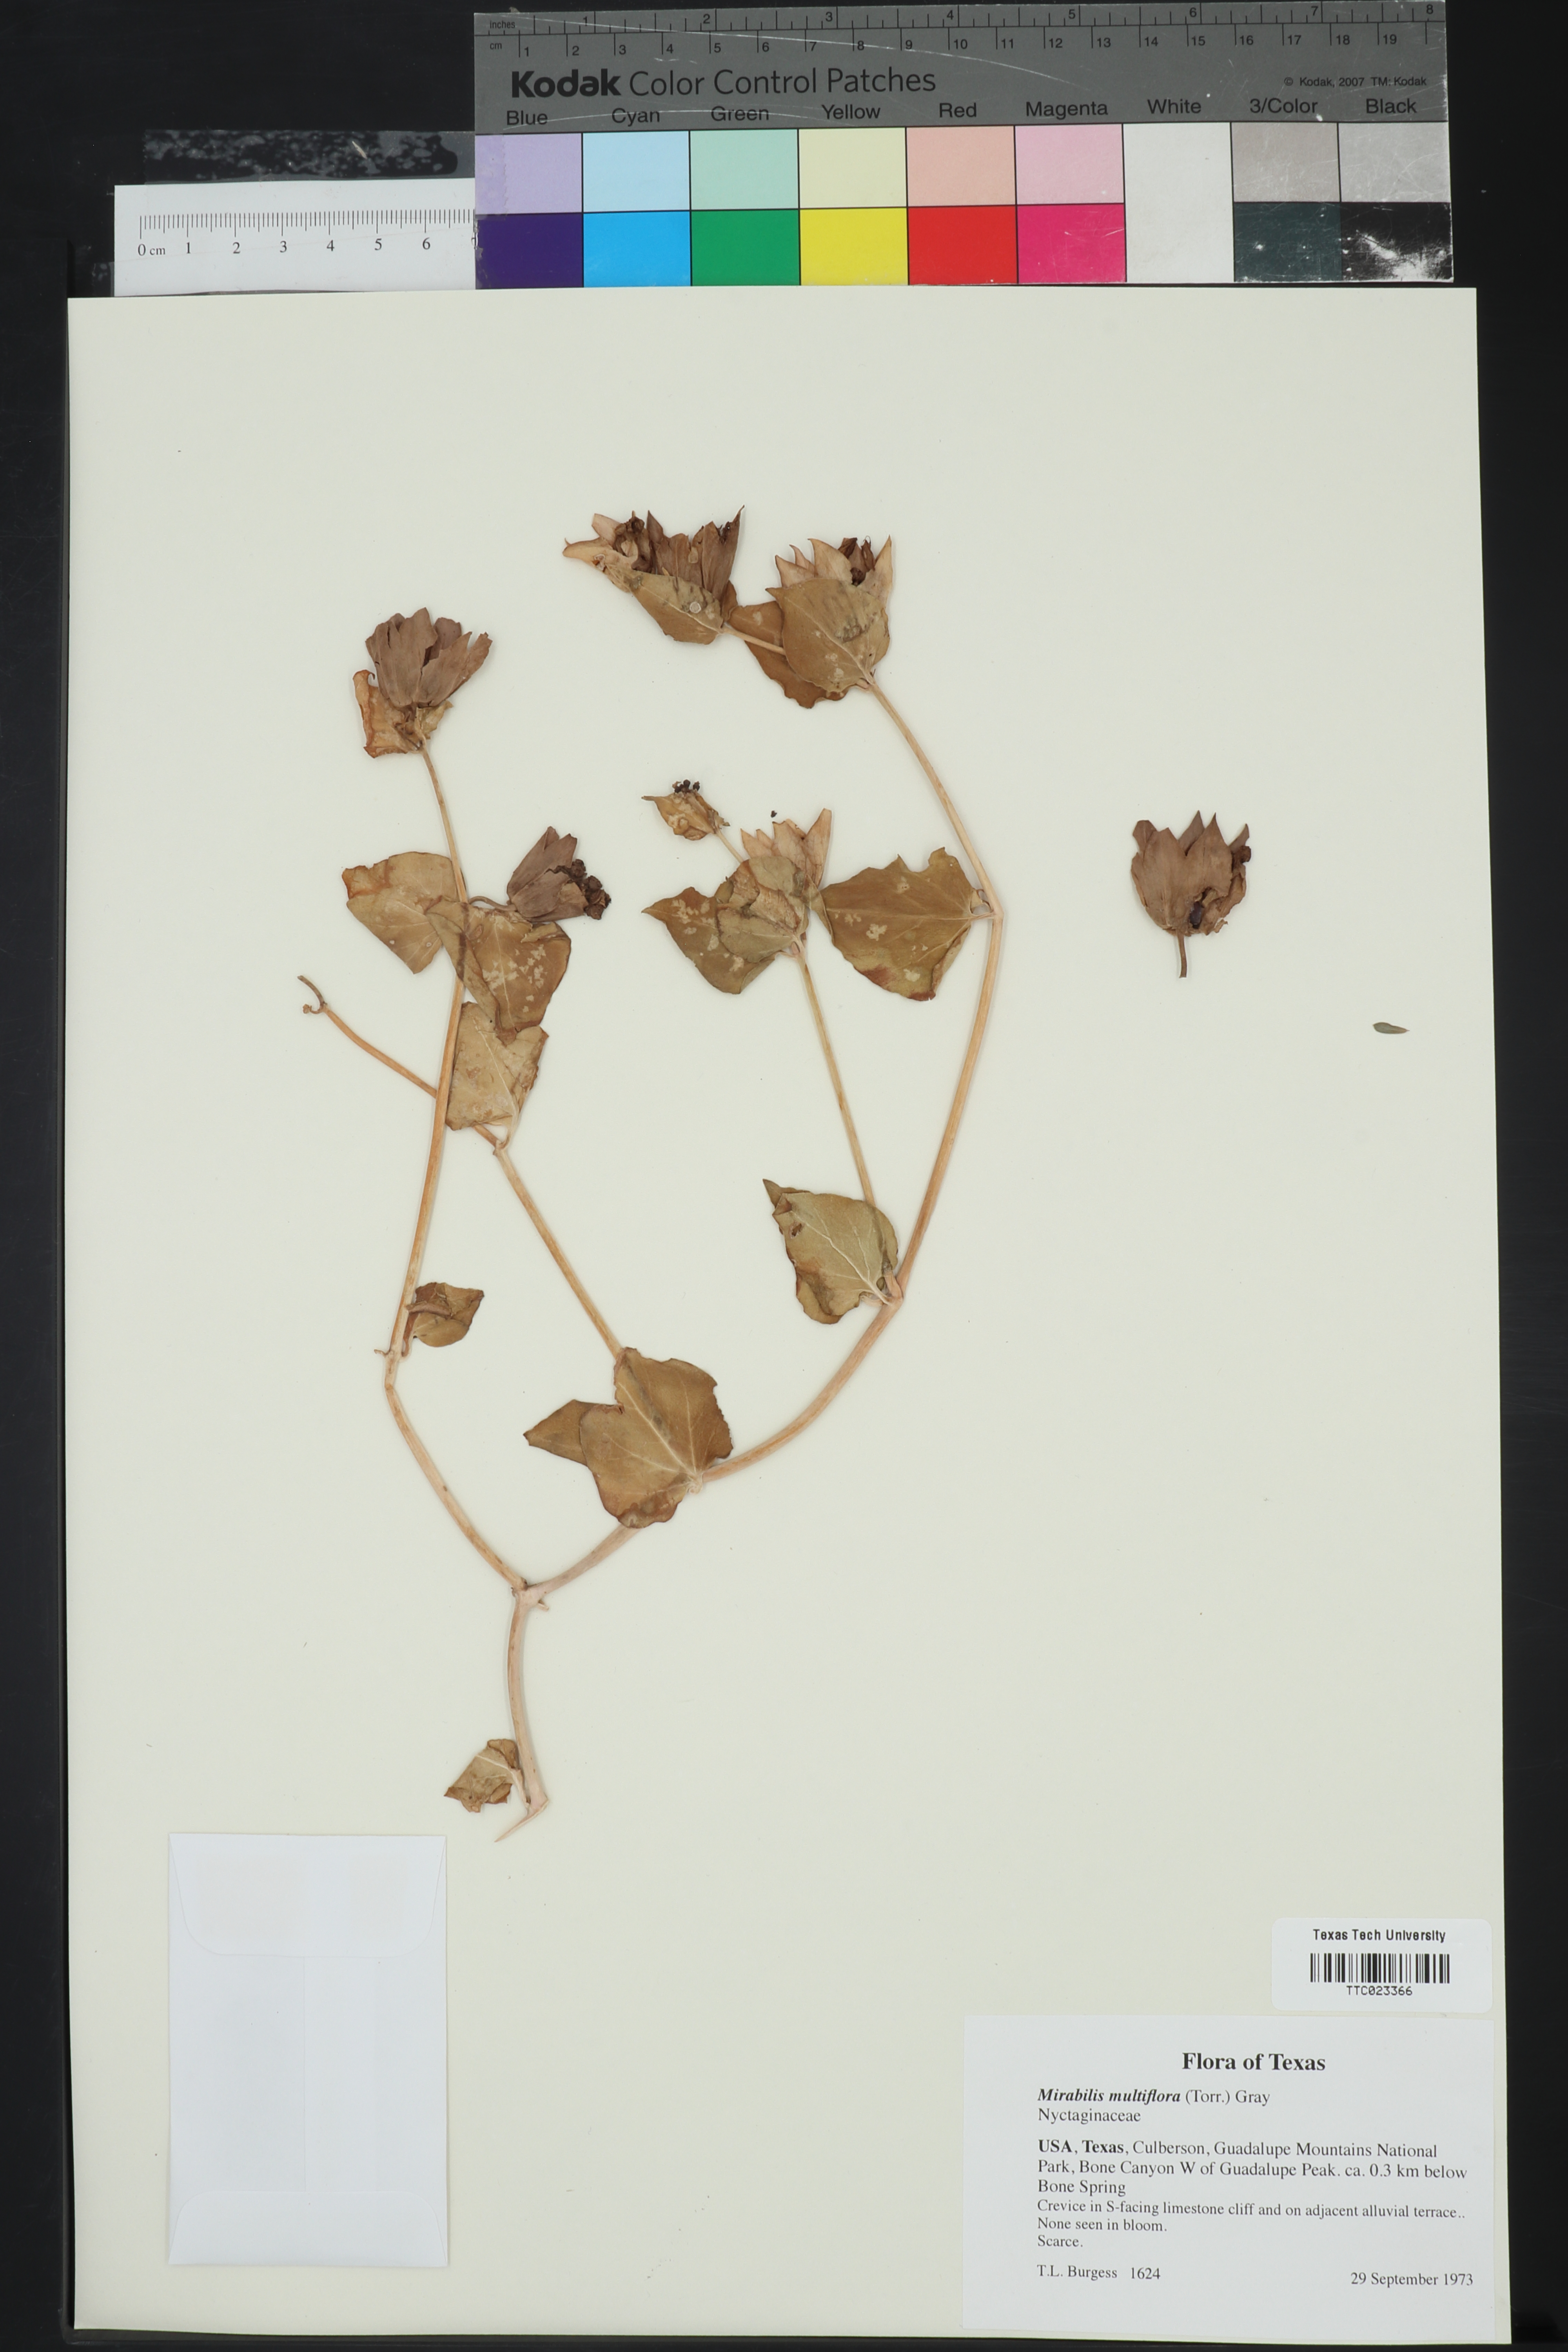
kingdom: Plantae
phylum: Tracheophyta
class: Magnoliopsida
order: Caryophyllales
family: Nyctaginaceae
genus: Mirabilis
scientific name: Mirabilis multiflora
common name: Froebel's four-o'clock
